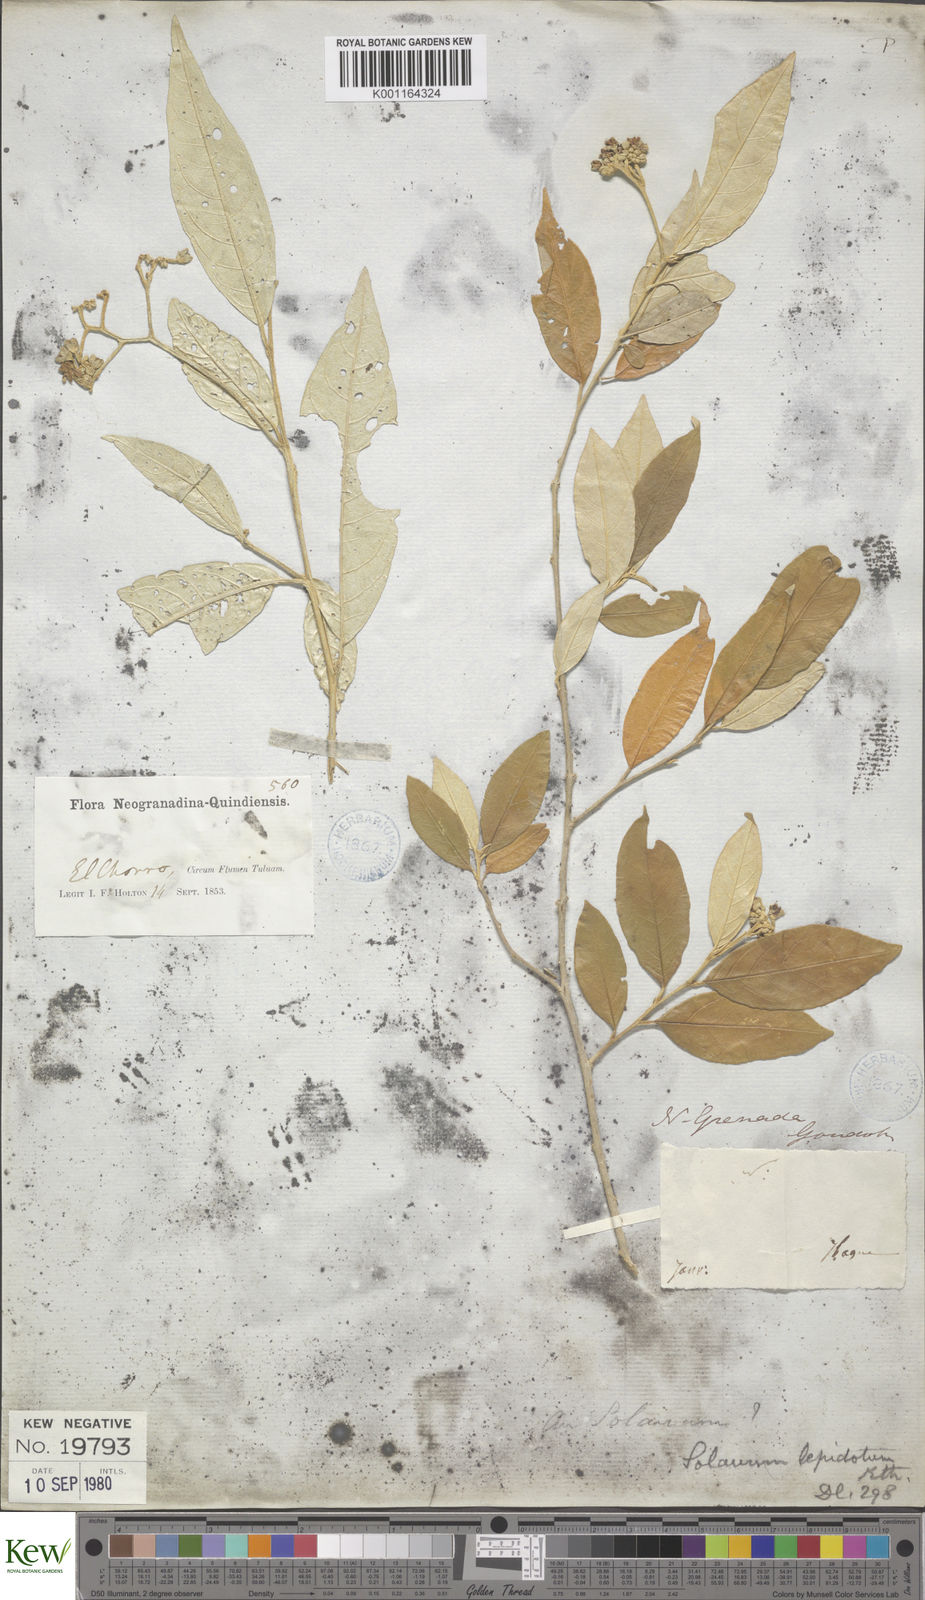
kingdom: Plantae
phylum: Tracheophyta
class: Magnoliopsida
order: Solanales
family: Solanaceae
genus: Solanum
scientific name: Solanum lepidotum
